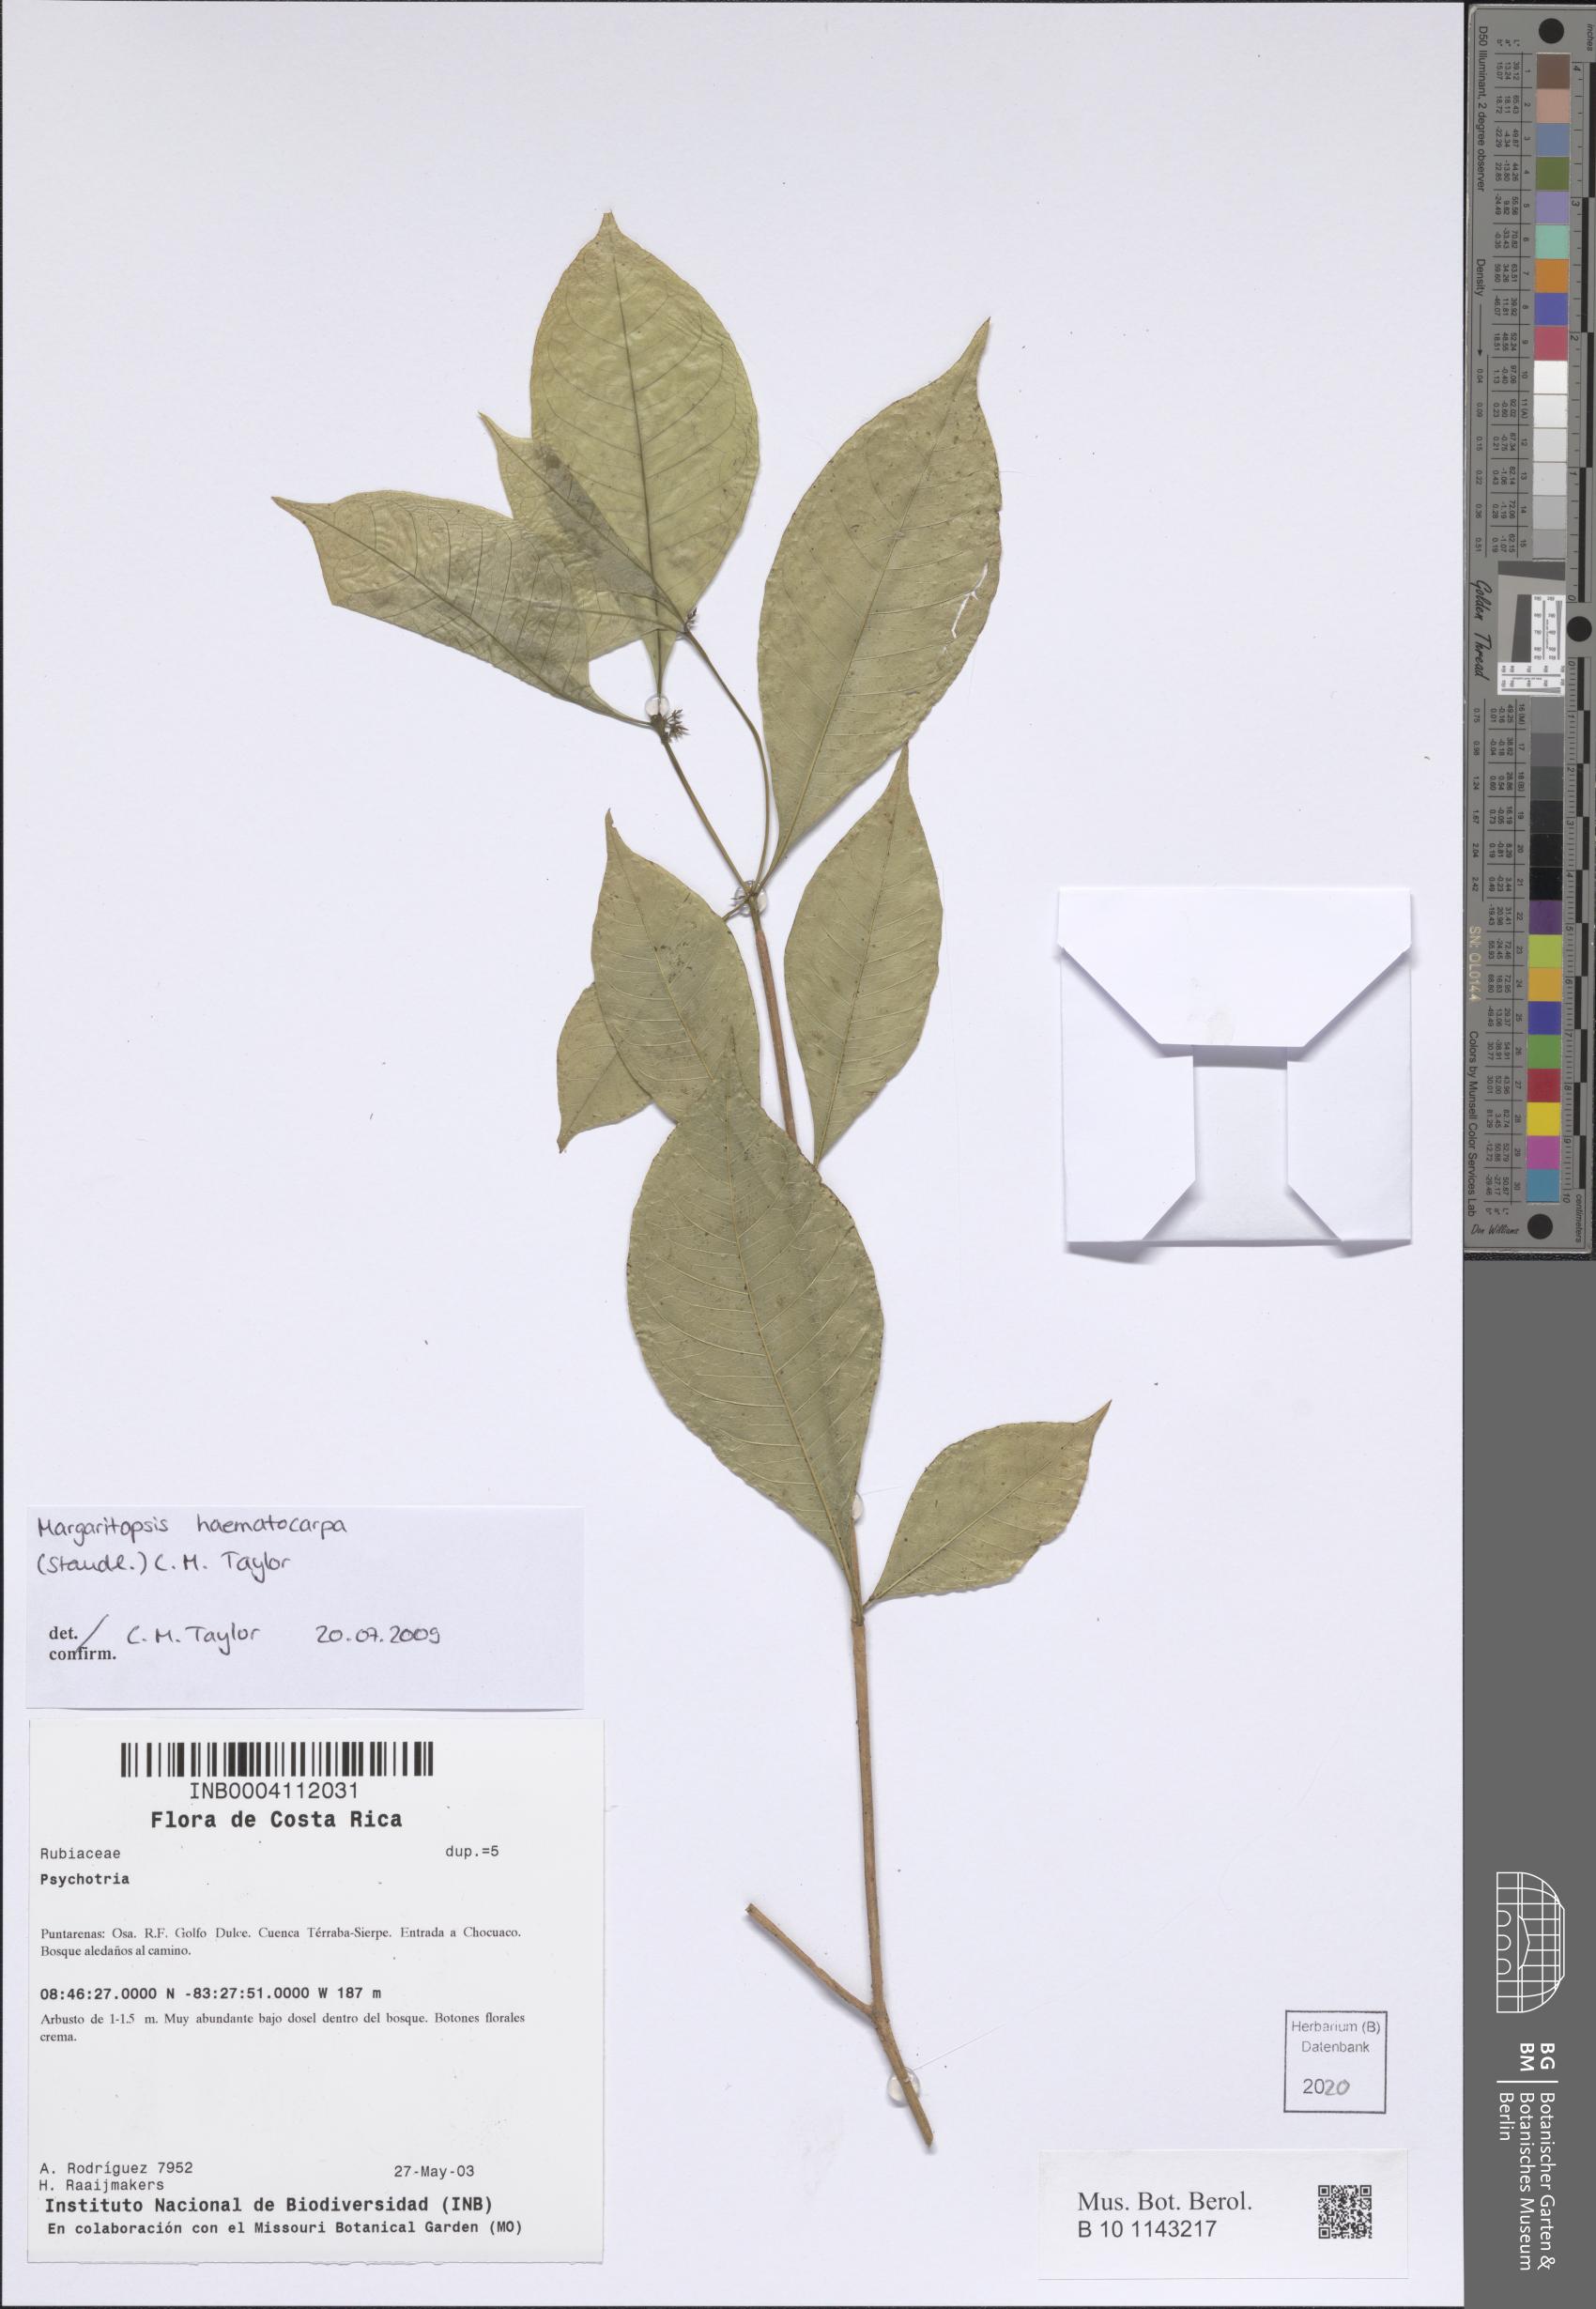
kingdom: Plantae
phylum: Tracheophyta
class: Magnoliopsida
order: Gentianales
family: Rubiaceae
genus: Eumachia
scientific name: Eumachia haematocarpa
